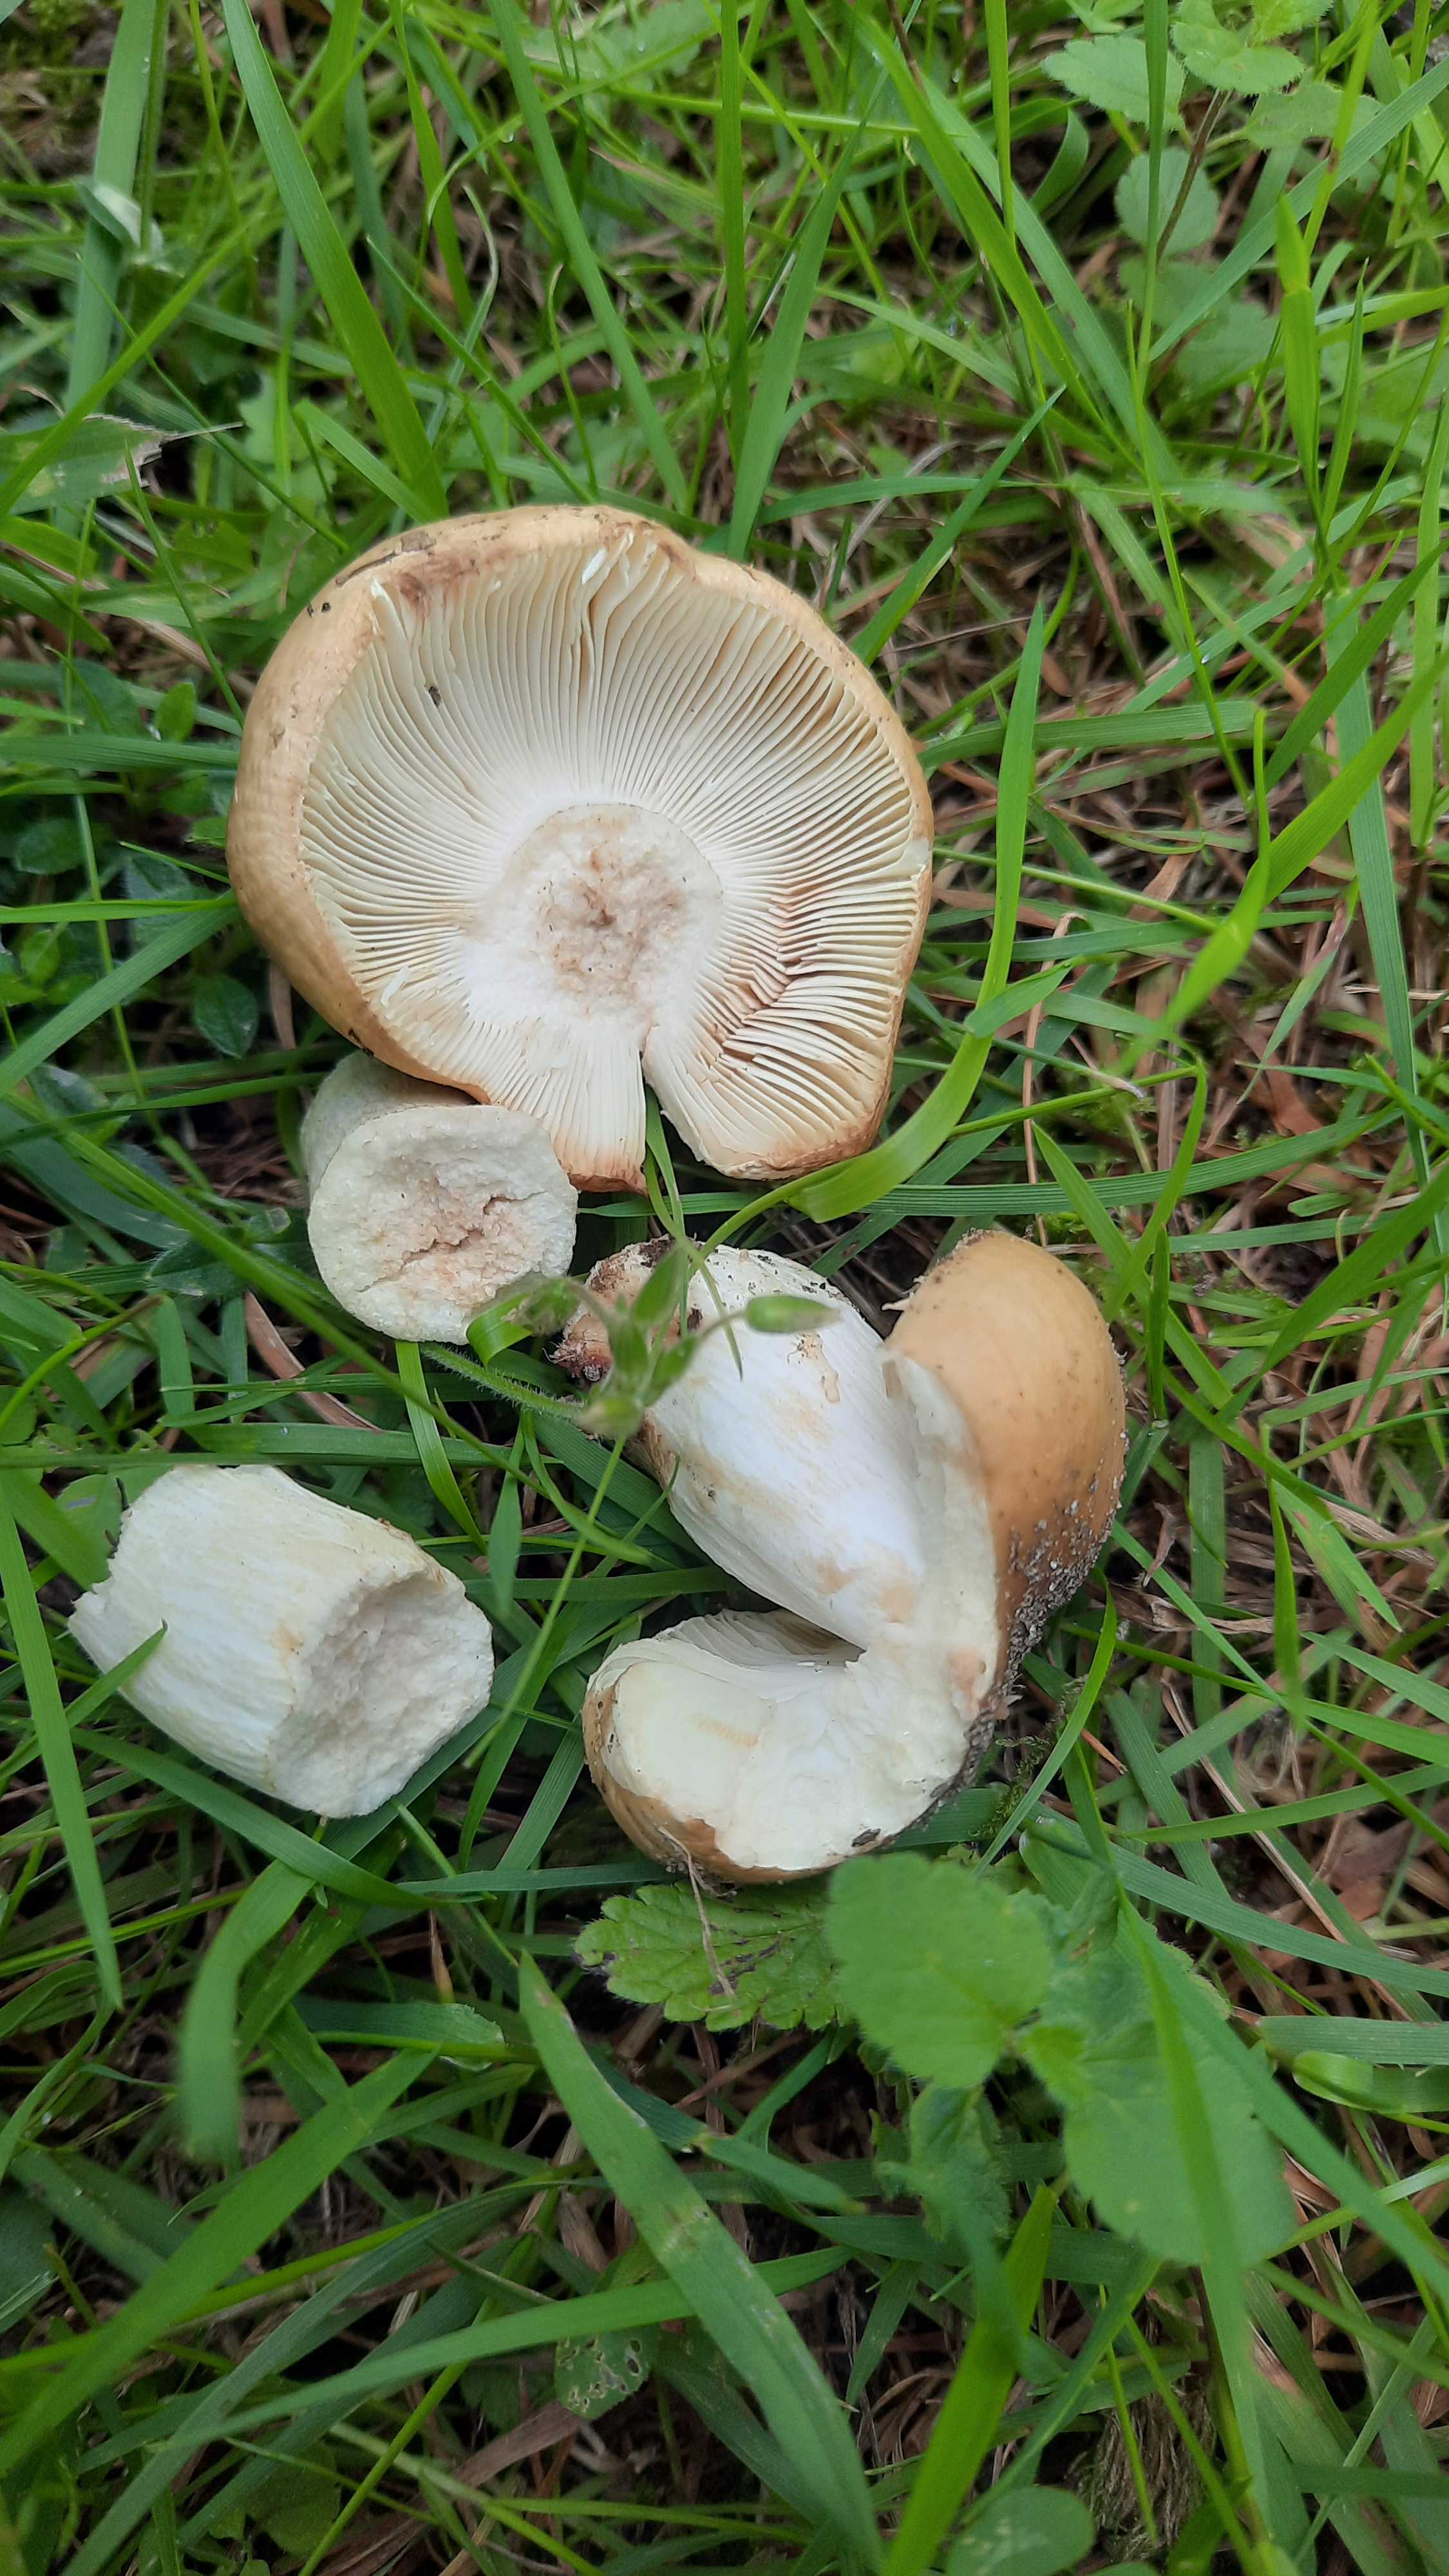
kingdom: Fungi
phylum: Basidiomycota
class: Agaricomycetes
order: Russulales
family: Russulaceae
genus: Russula
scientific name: Russula
